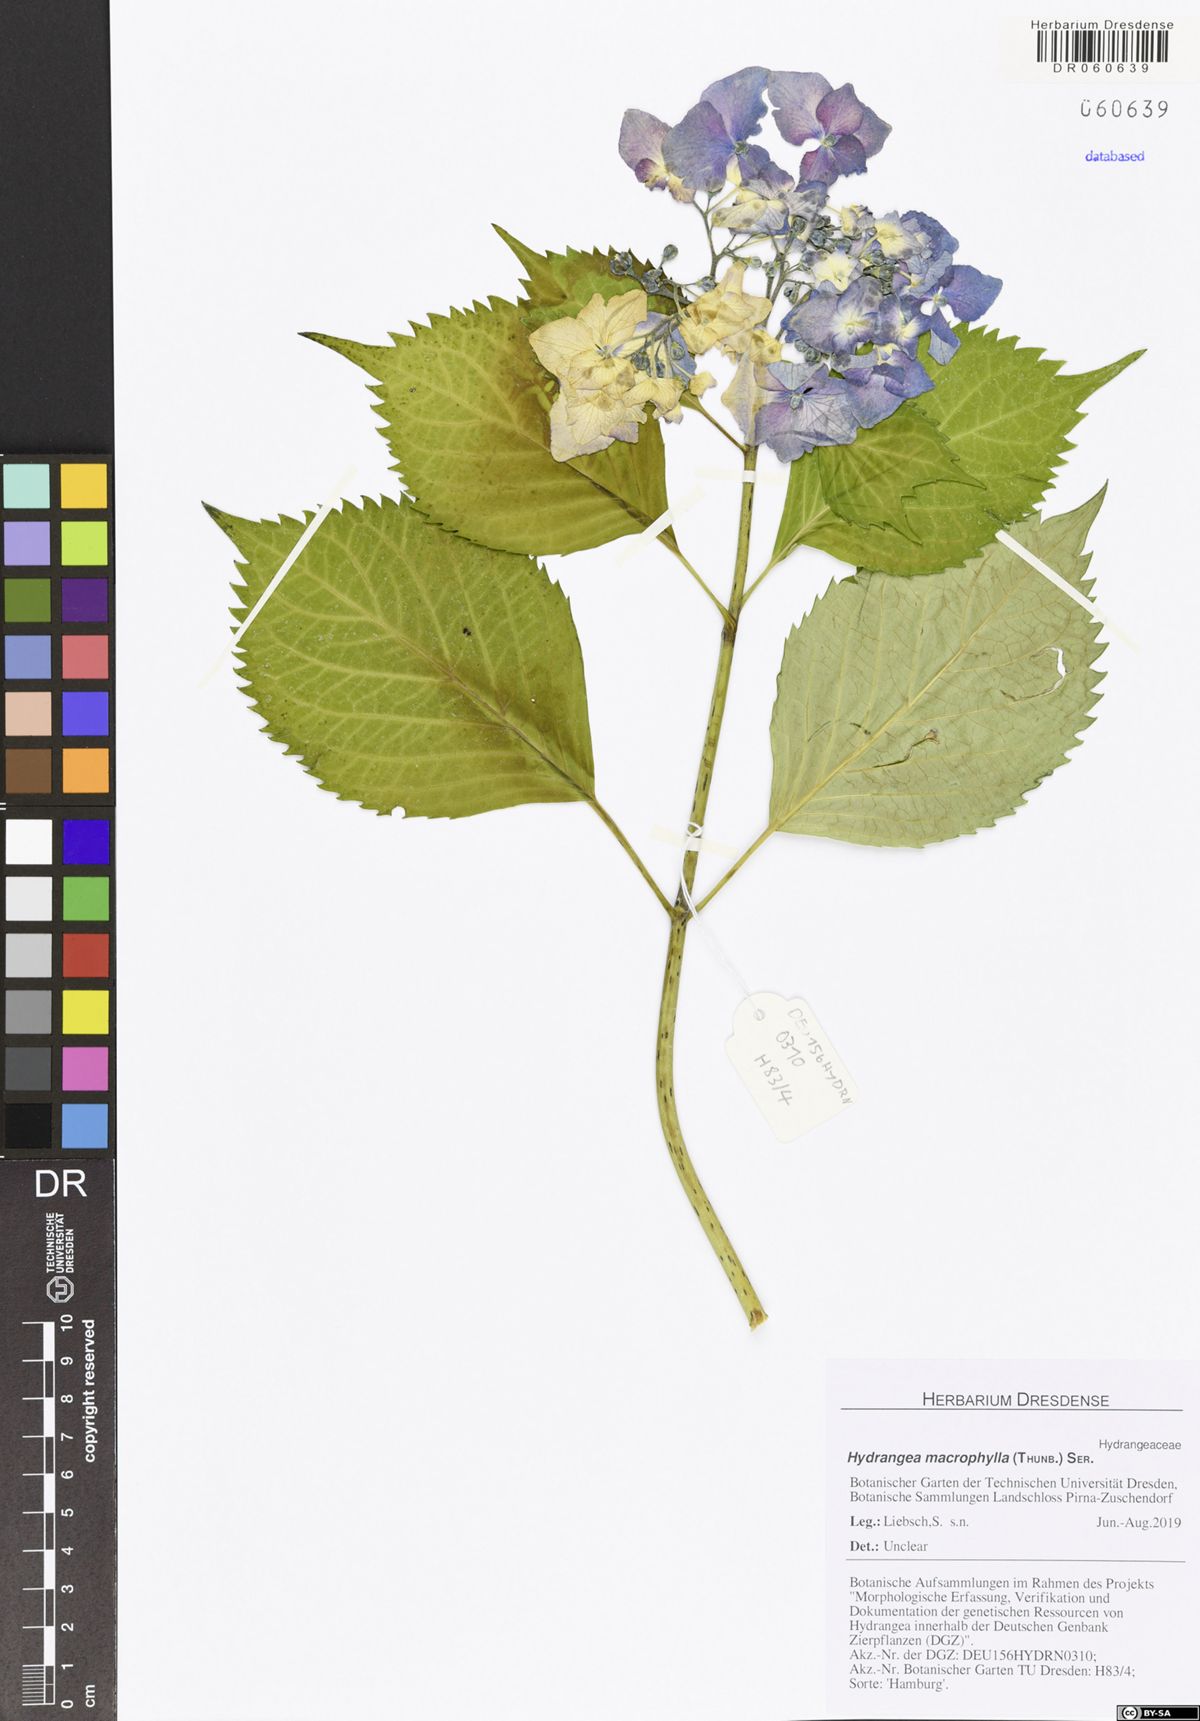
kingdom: Plantae
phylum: Tracheophyta
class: Magnoliopsida
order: Cornales
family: Hydrangeaceae
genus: Hydrangea
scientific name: Hydrangea macrophylla
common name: Hydrangea
